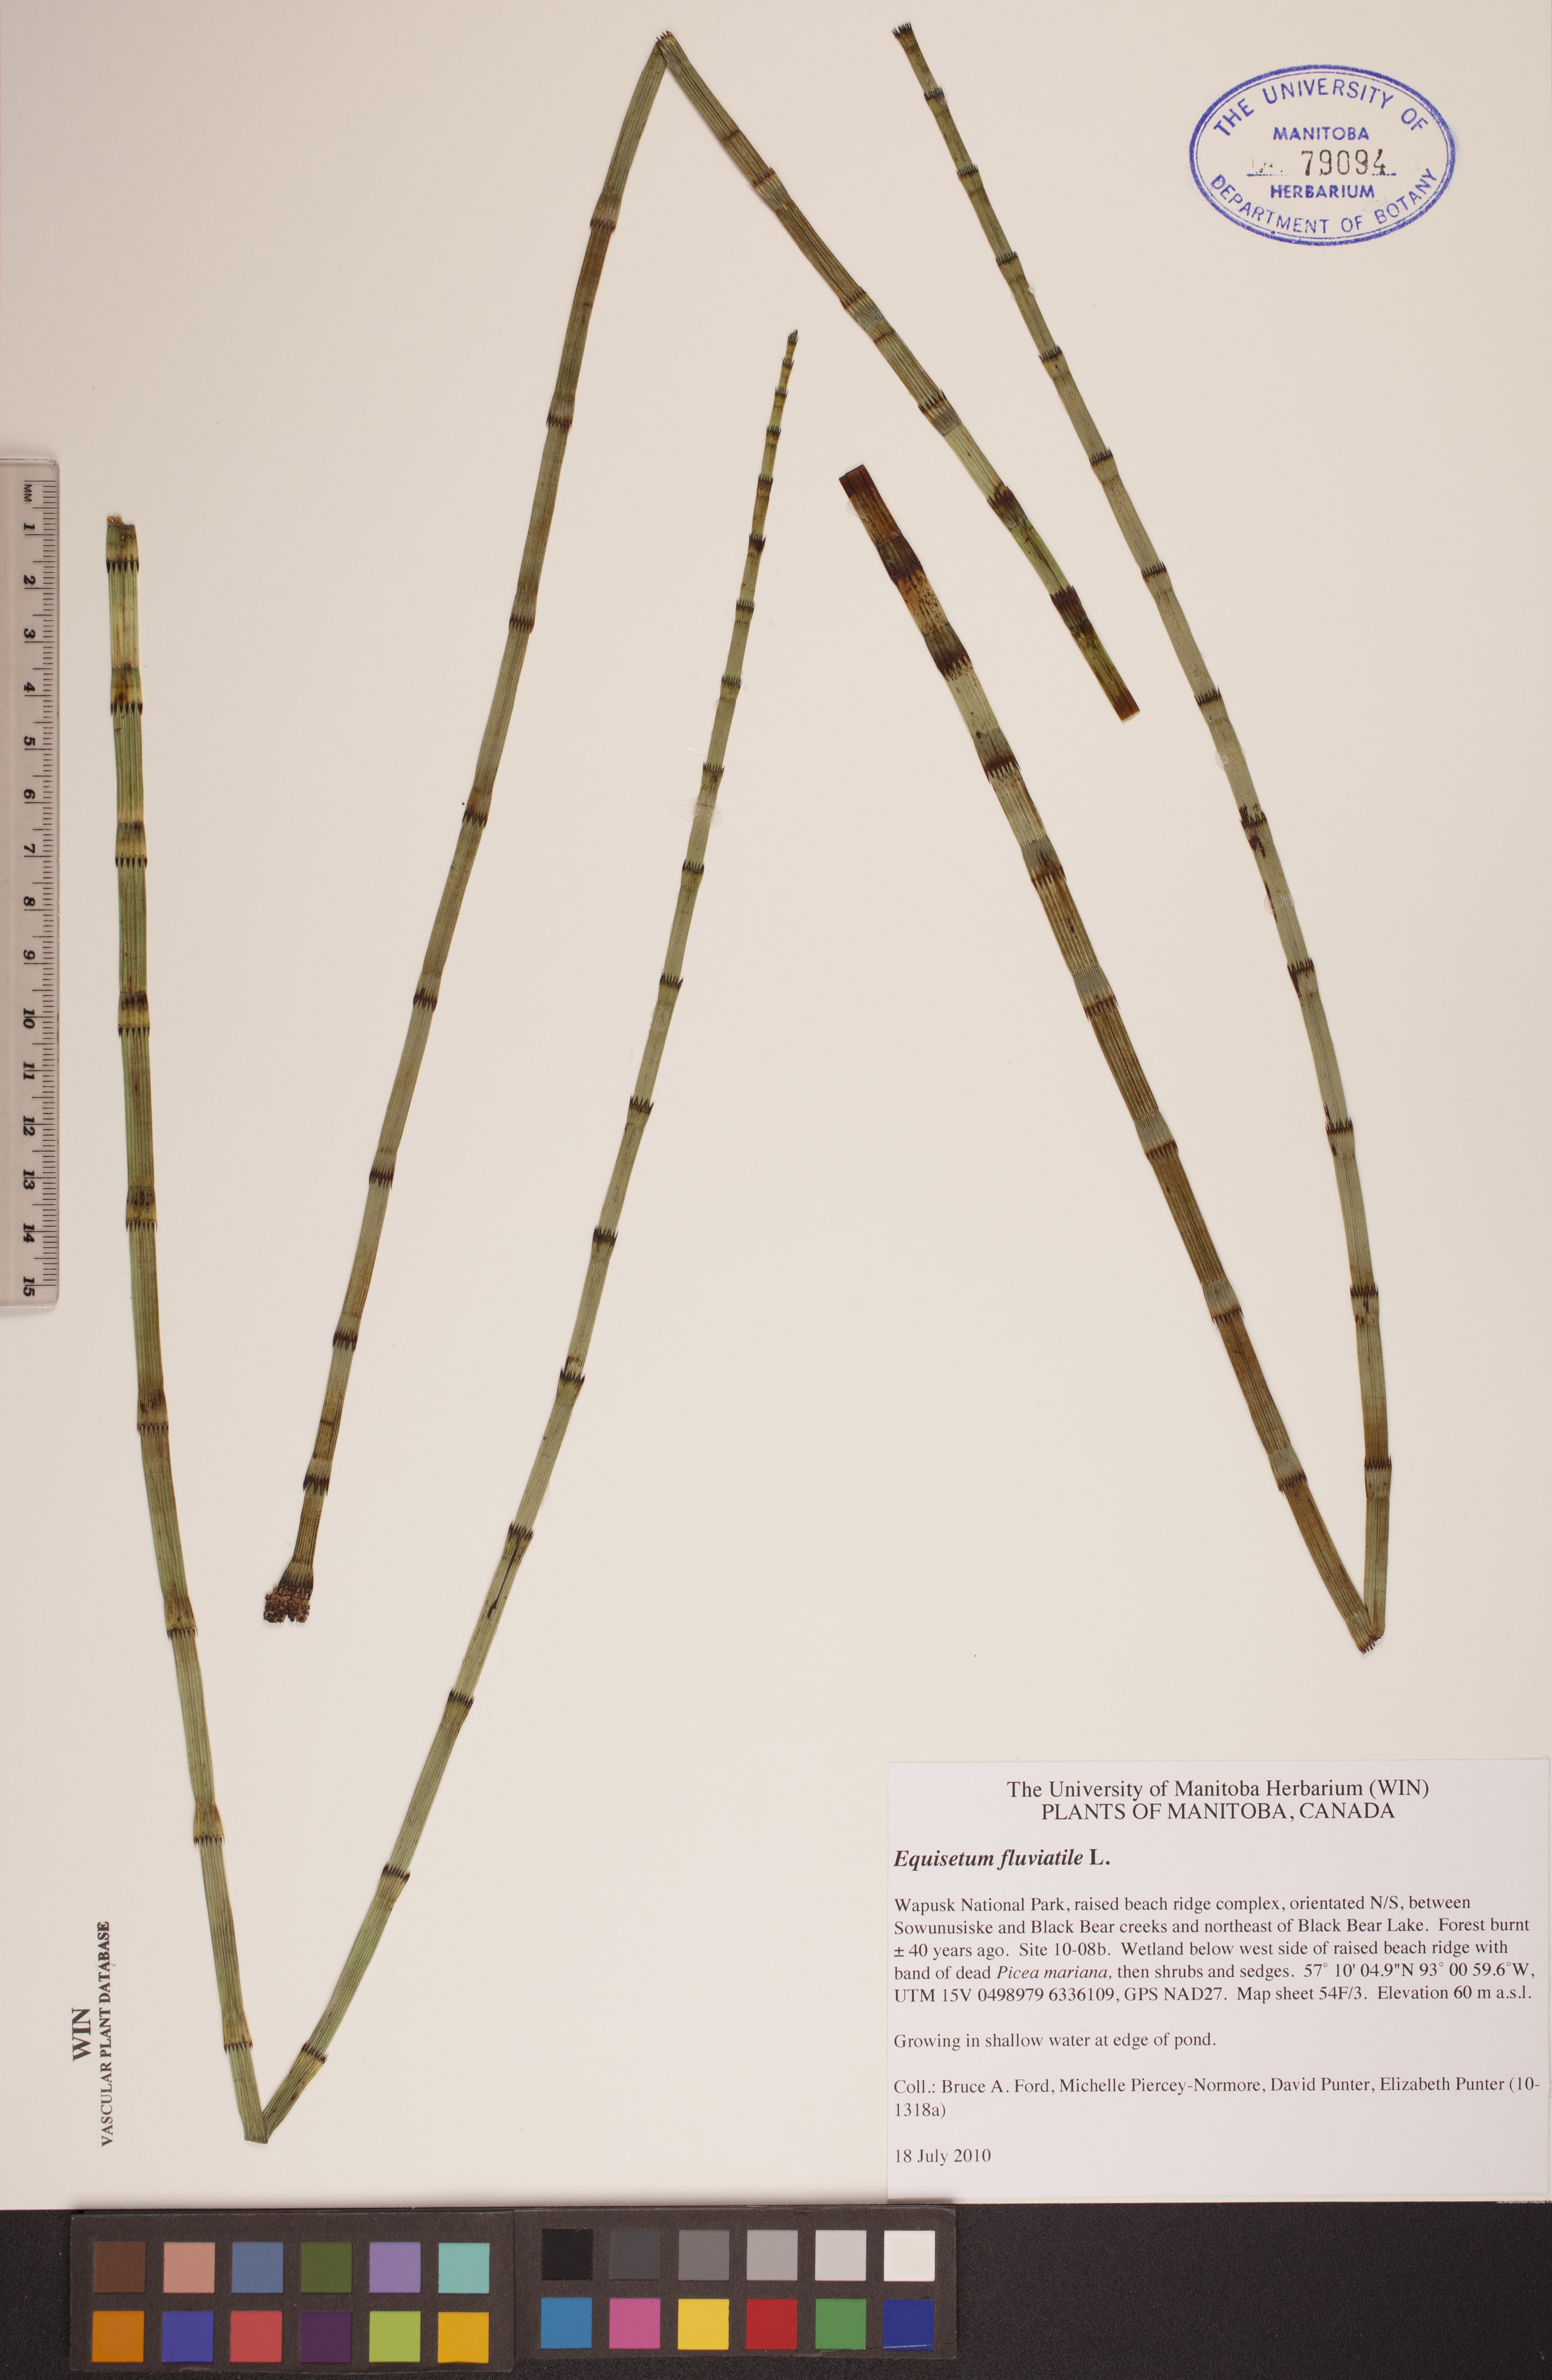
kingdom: Plantae
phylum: Tracheophyta
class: Polypodiopsida
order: Equisetales
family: Equisetaceae
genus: Equisetum
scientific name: Equisetum fluviatile
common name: Water horsetail
